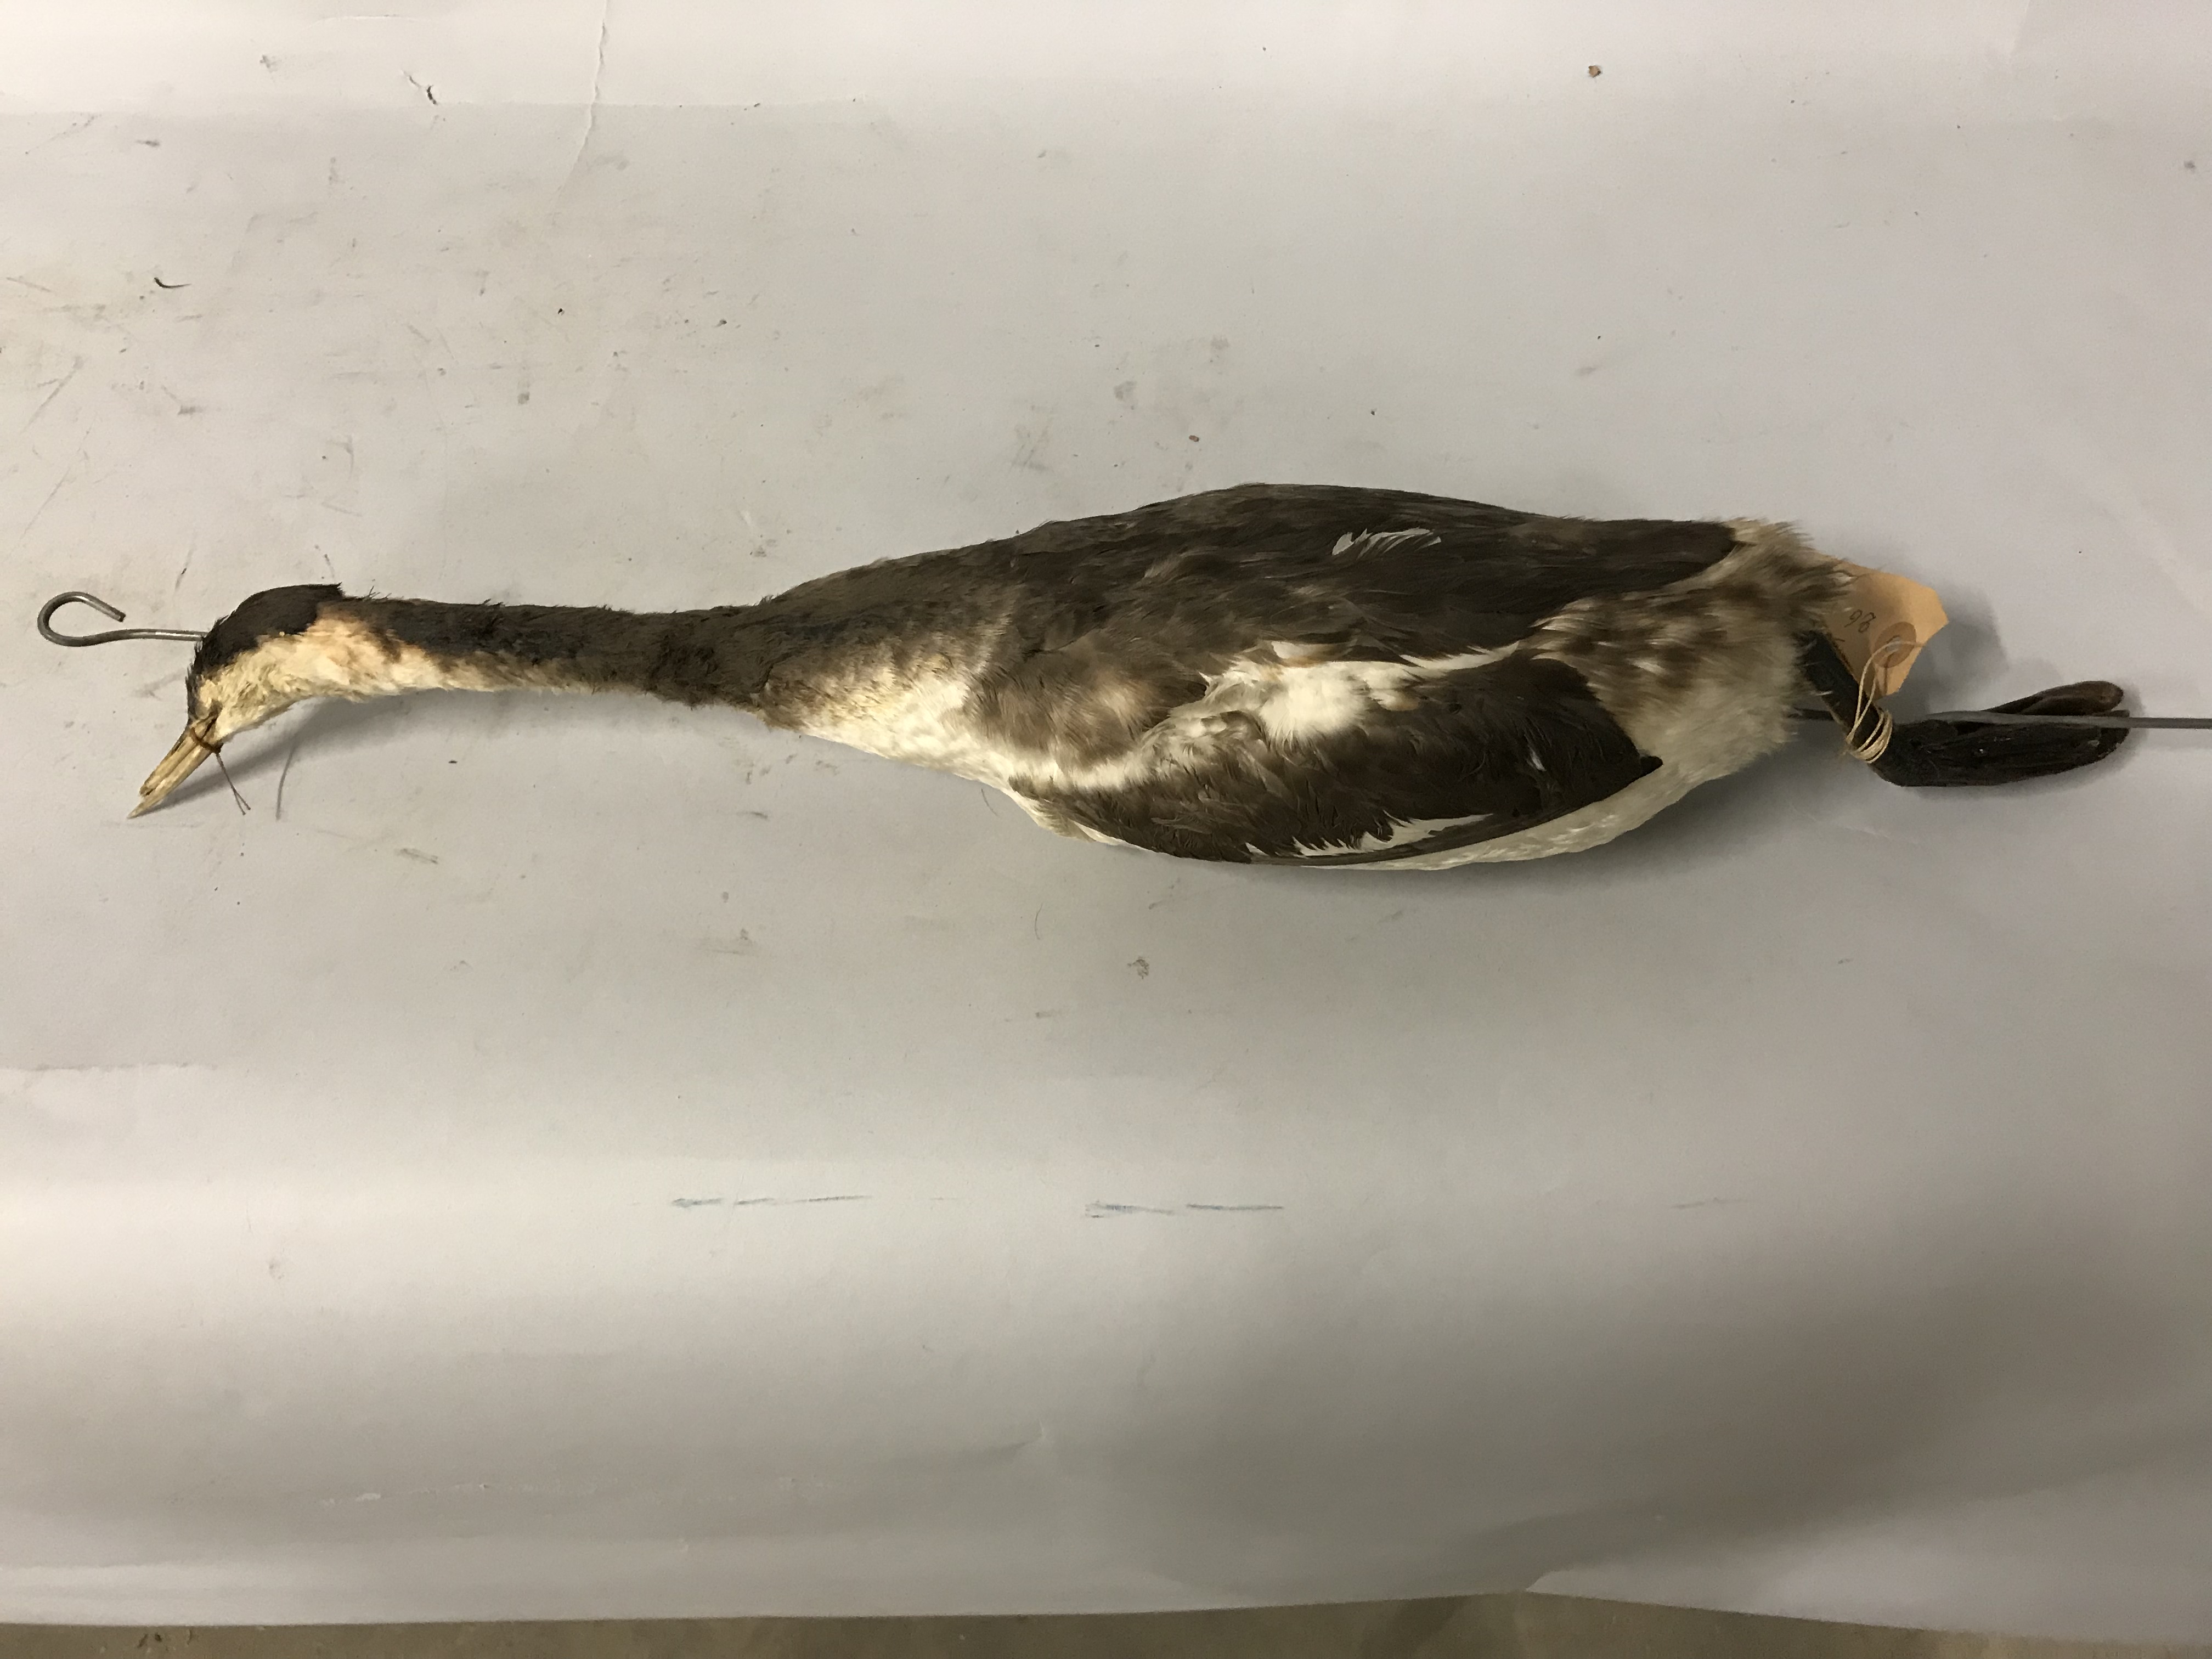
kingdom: Animalia
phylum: Chordata
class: Aves
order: Podicipediformes
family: Podicipedidae
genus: Podiceps
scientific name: Podiceps cristatus
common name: Great crested grebe
